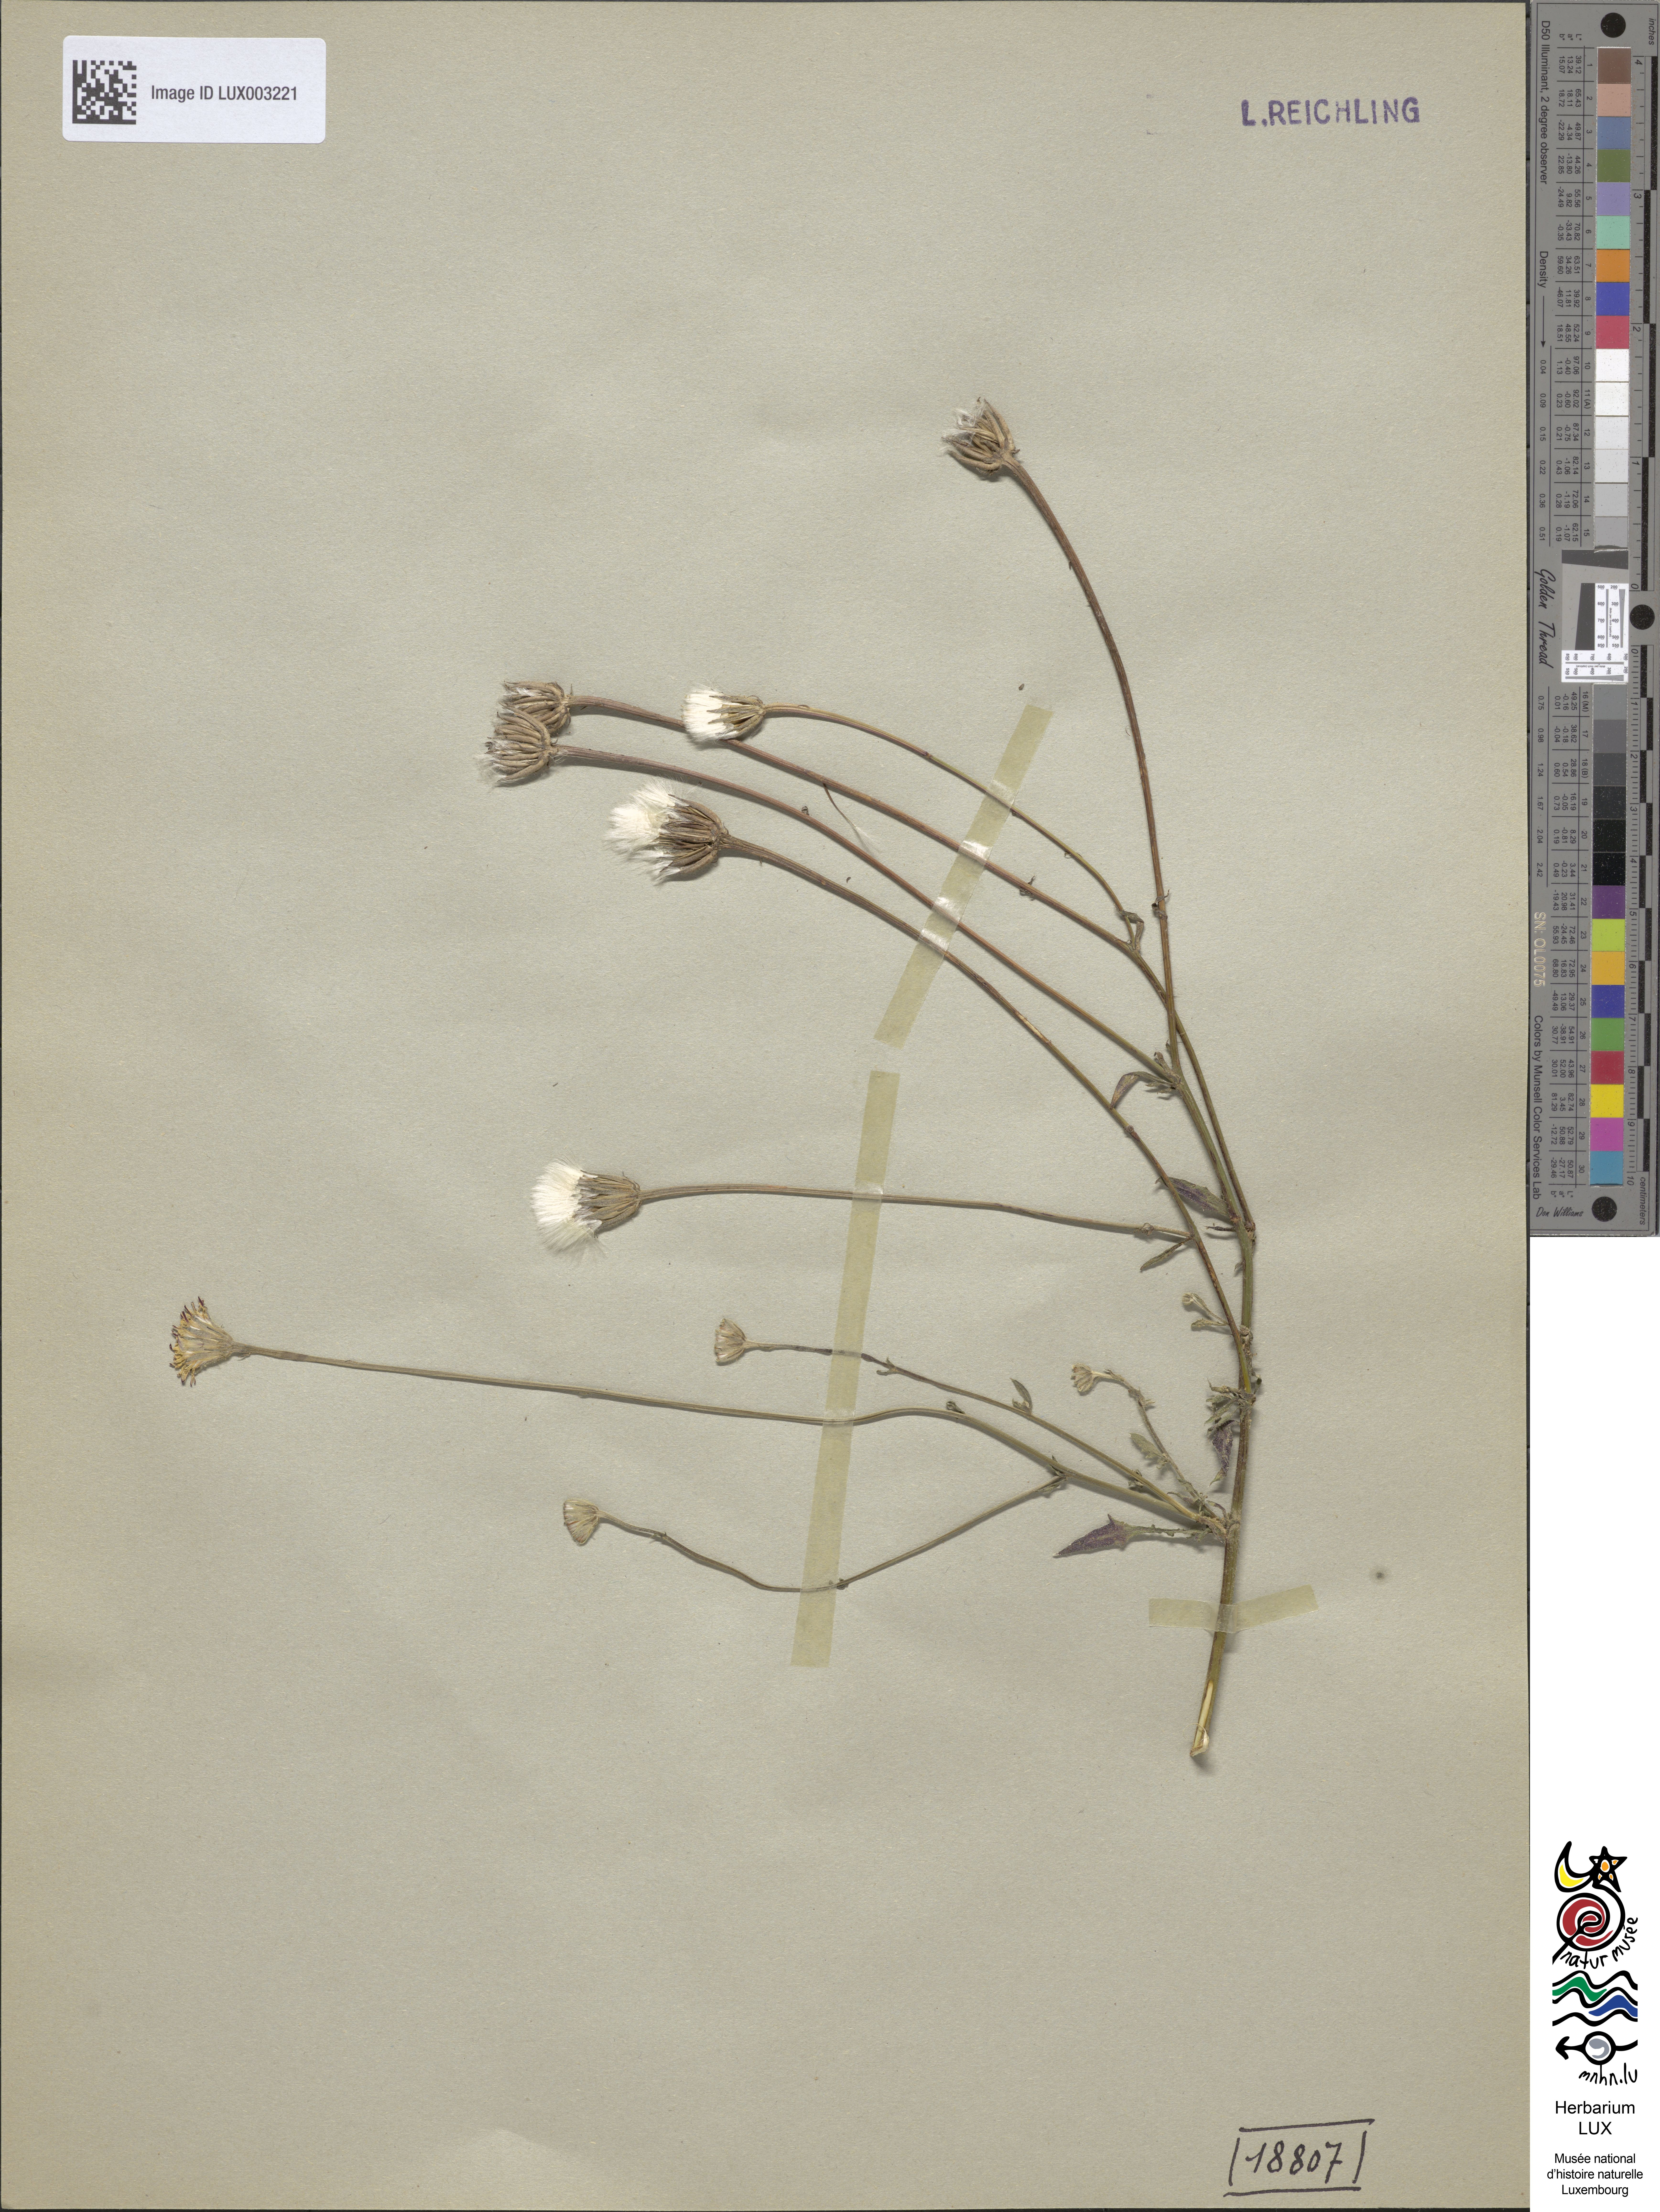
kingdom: Plantae
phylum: Tracheophyta
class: Magnoliopsida
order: Asterales
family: Asteraceae
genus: Crepis
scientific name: Crepis foetida
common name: Stinking hawk's-beard
